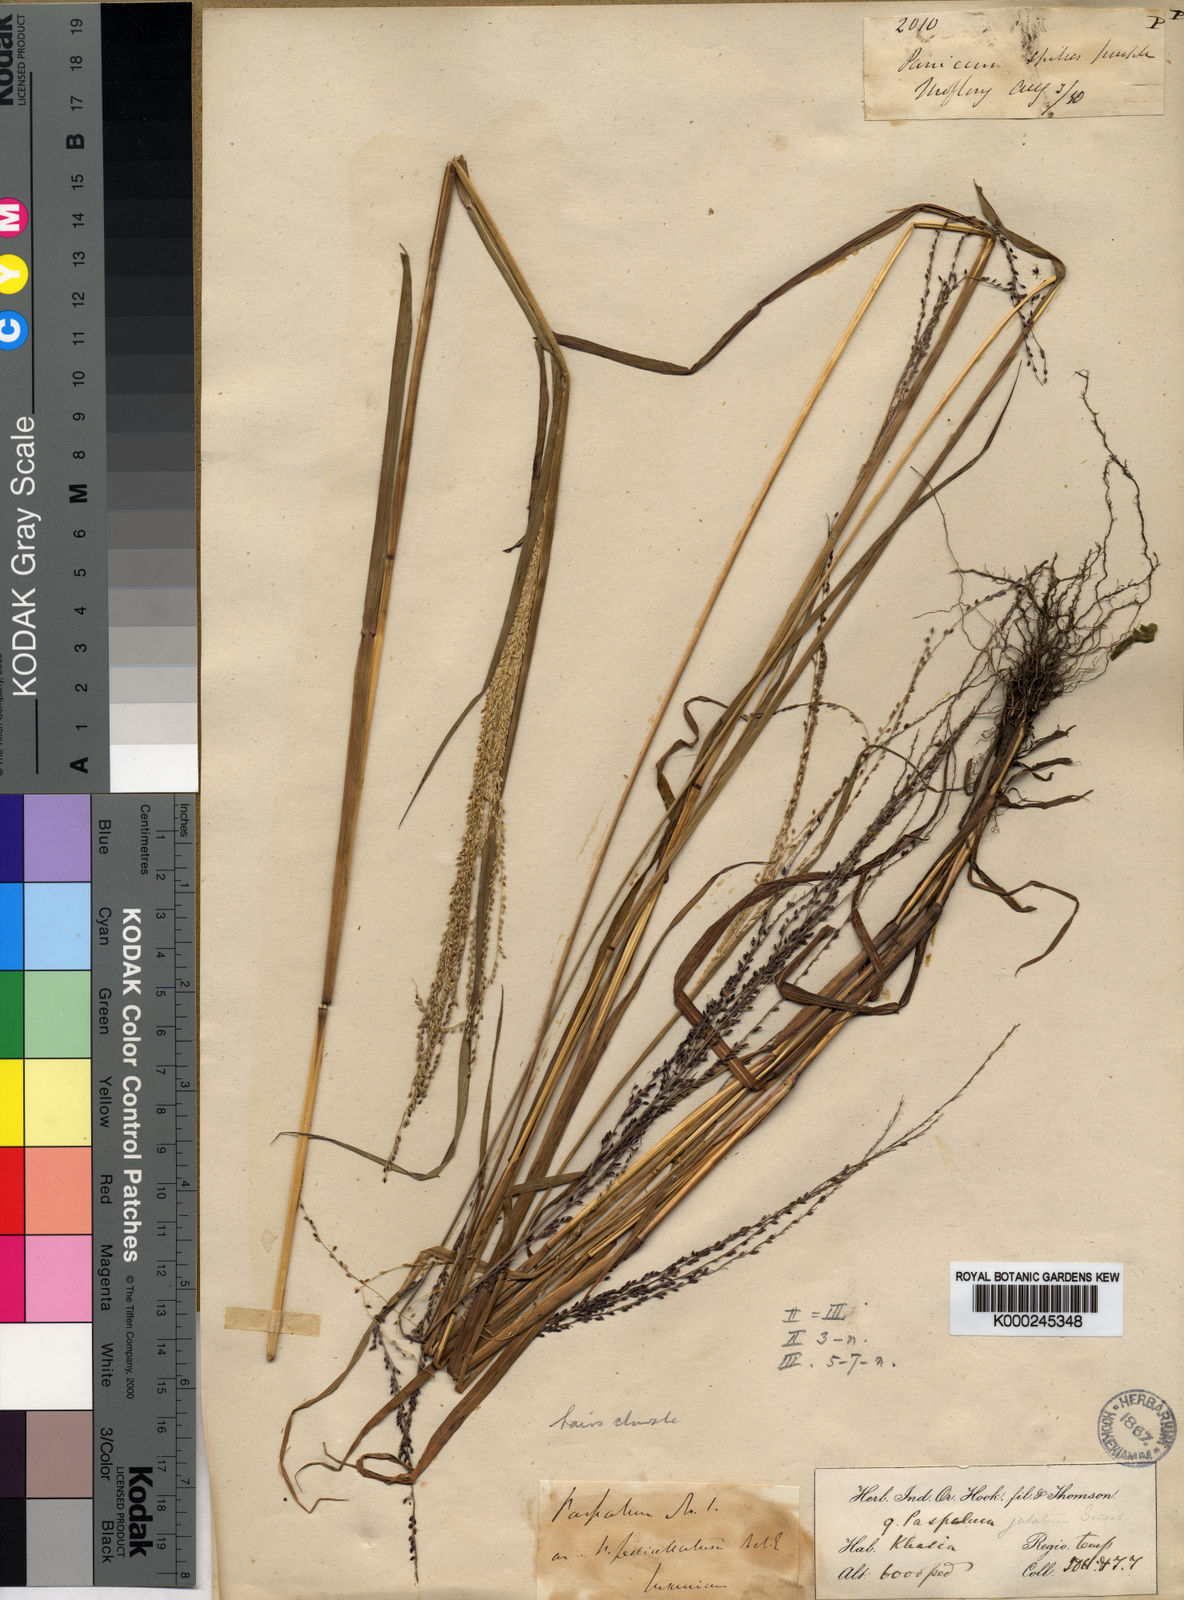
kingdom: Plantae
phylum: Tracheophyta
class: Liliopsida
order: Poales
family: Poaceae
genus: Digitaria
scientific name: Digitaria jubata
